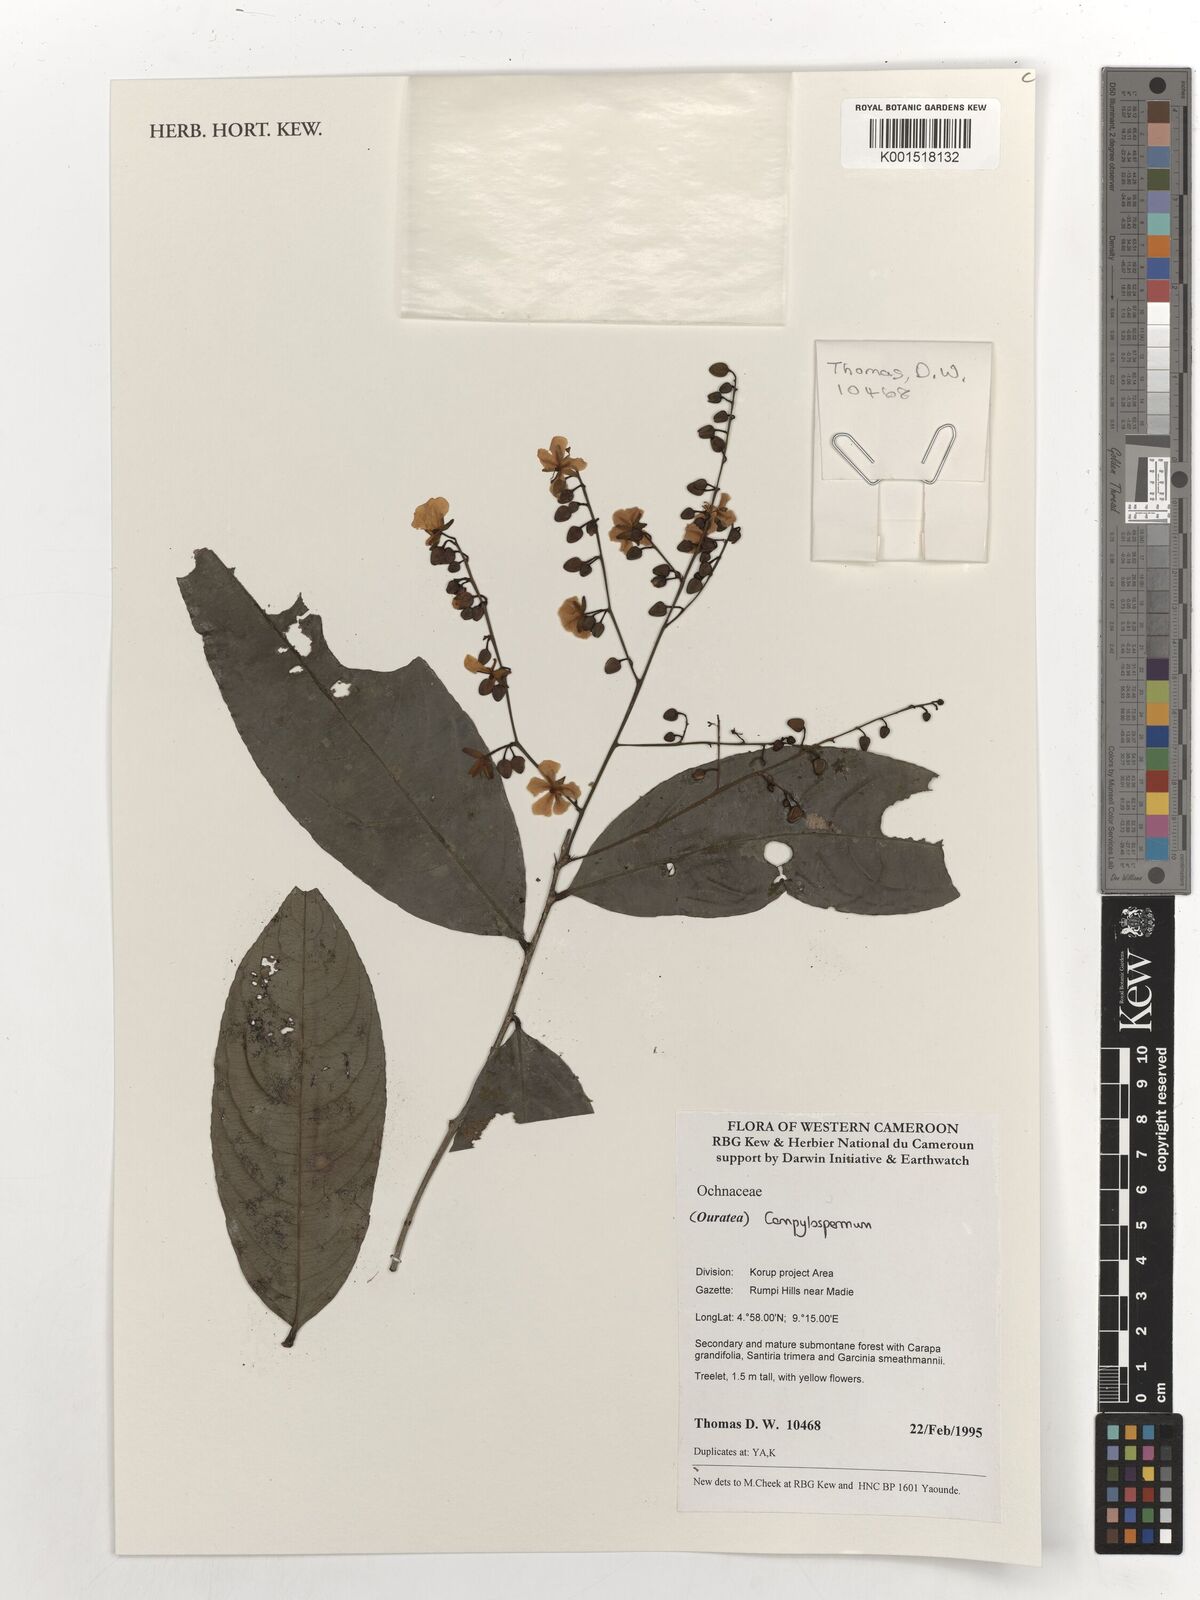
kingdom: Plantae
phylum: Tracheophyta
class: Magnoliopsida
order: Malpighiales
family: Ochnaceae
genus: Campylospermum
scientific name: Campylospermum laxiflorum
